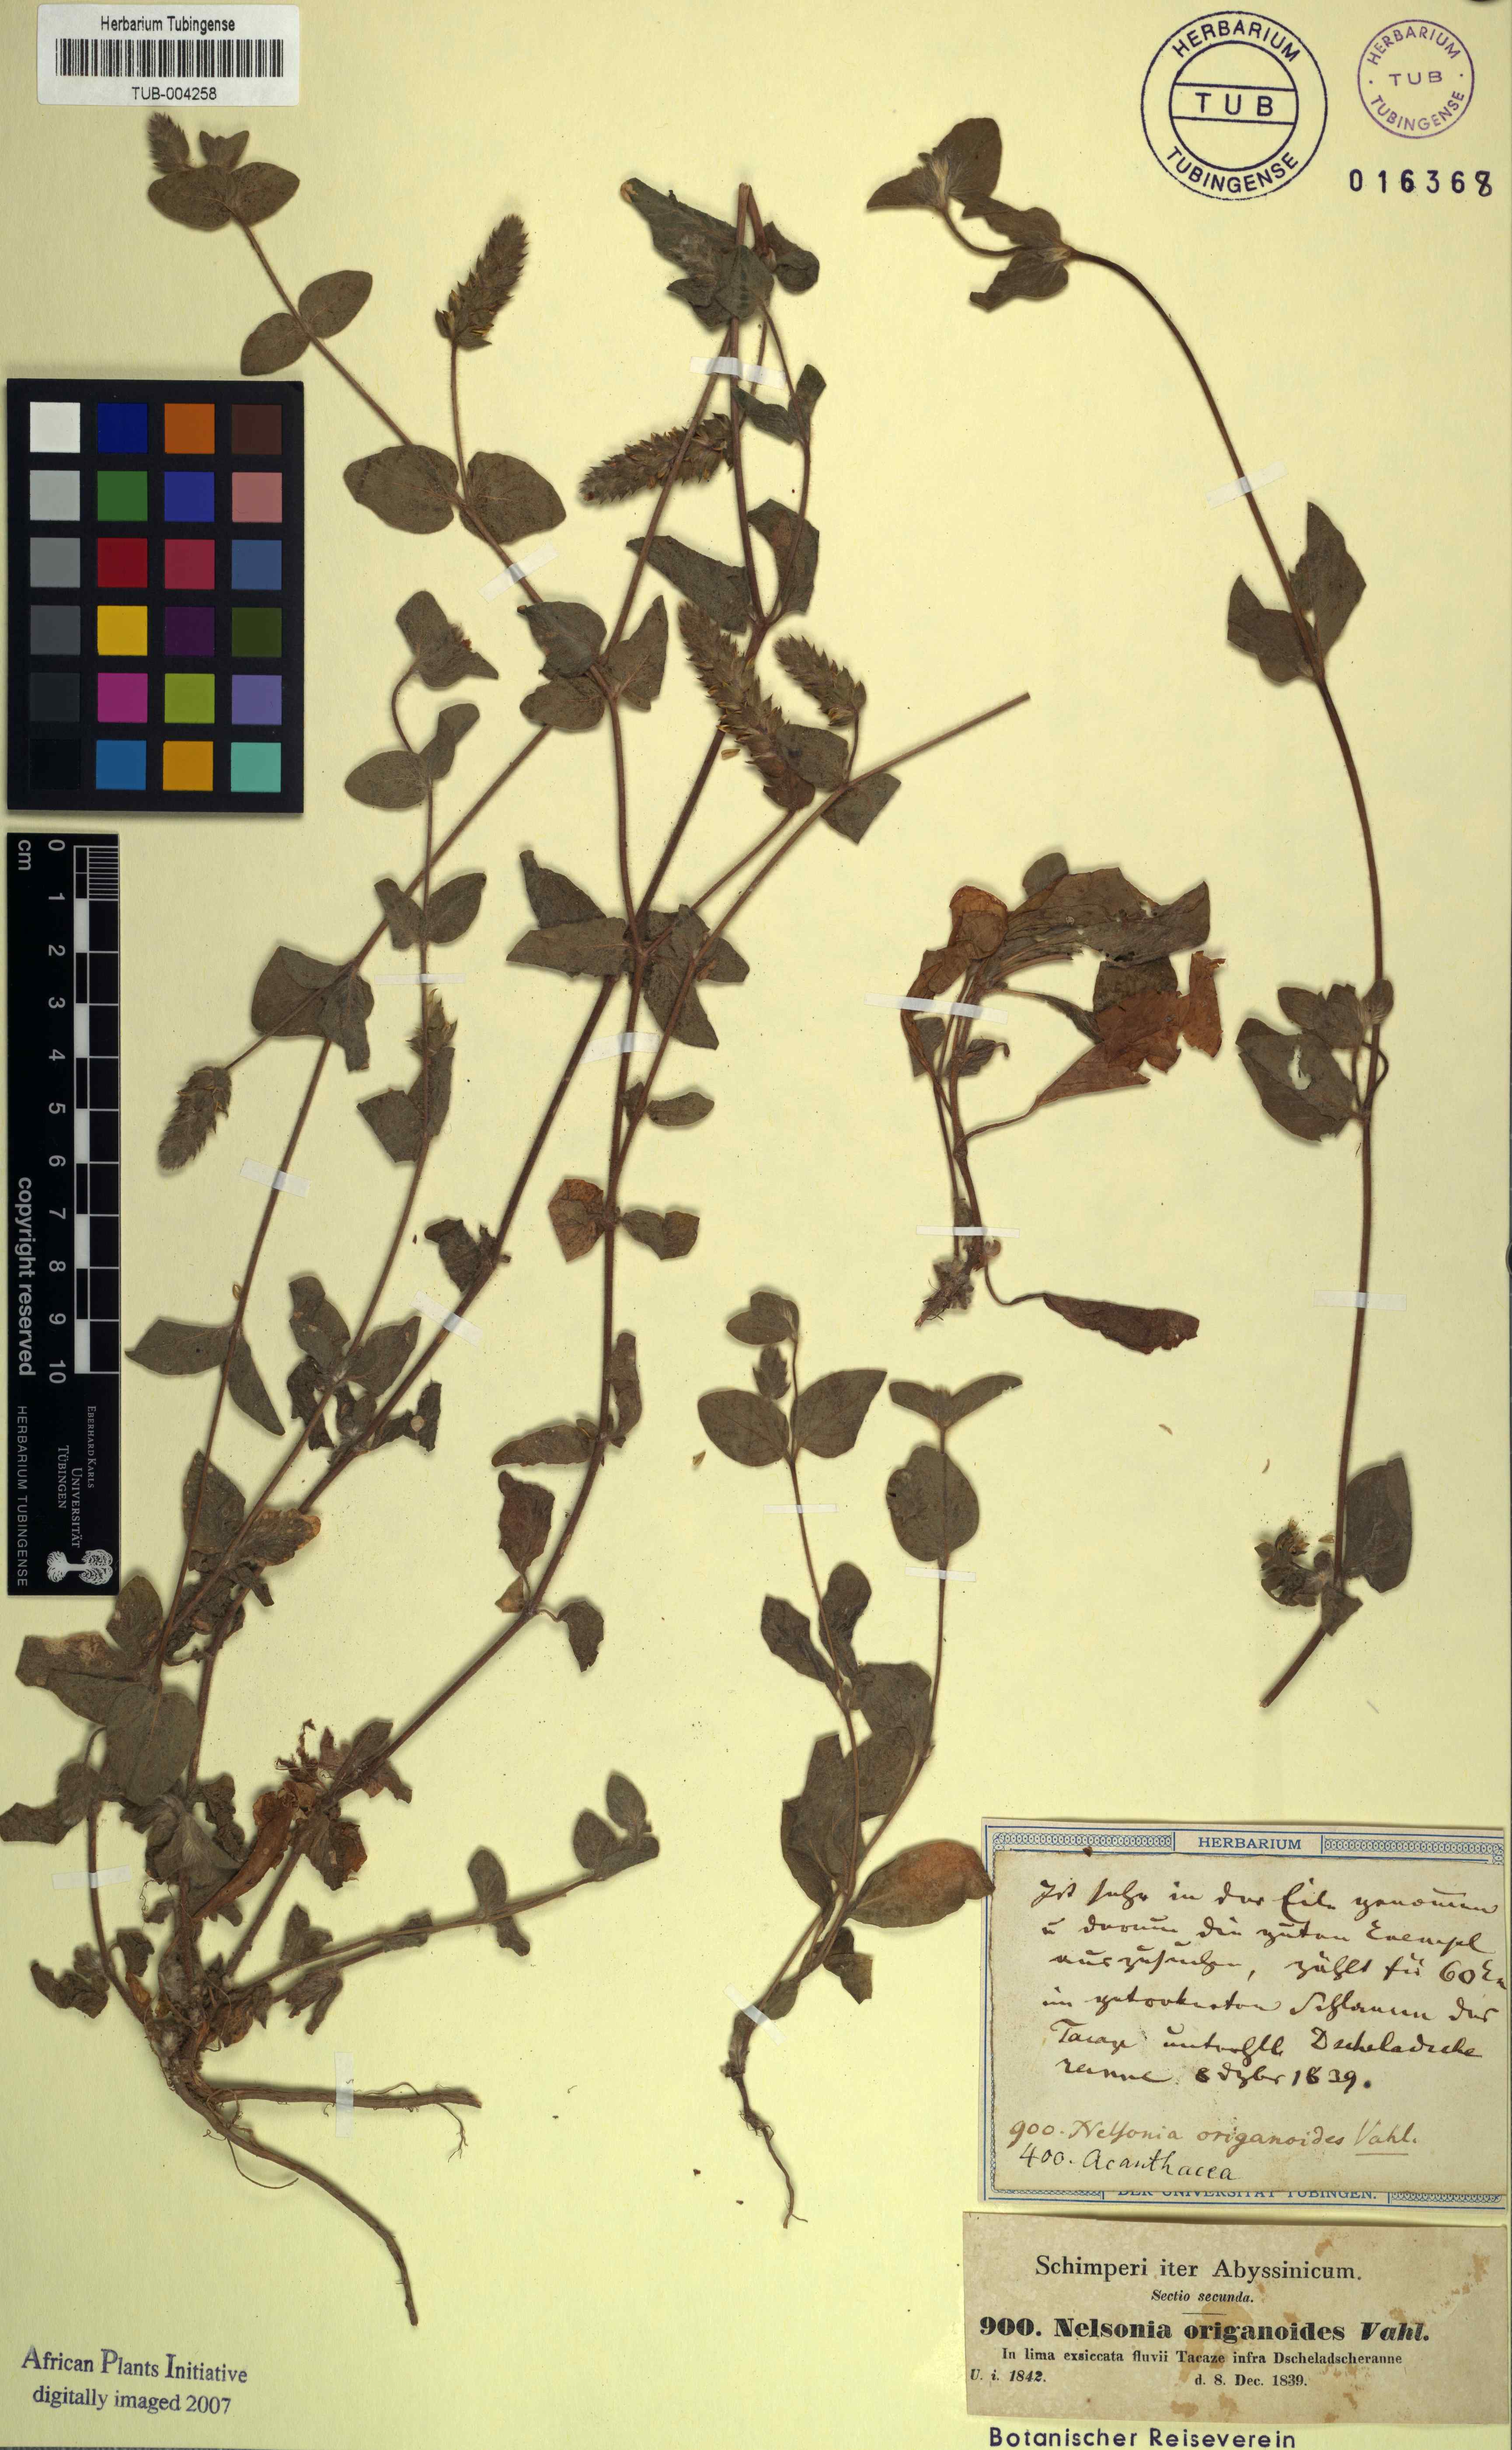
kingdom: Plantae
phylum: Tracheophyta
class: Magnoliopsida
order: Lamiales
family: Acanthaceae
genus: Nelsonia
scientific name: Nelsonia canescens
